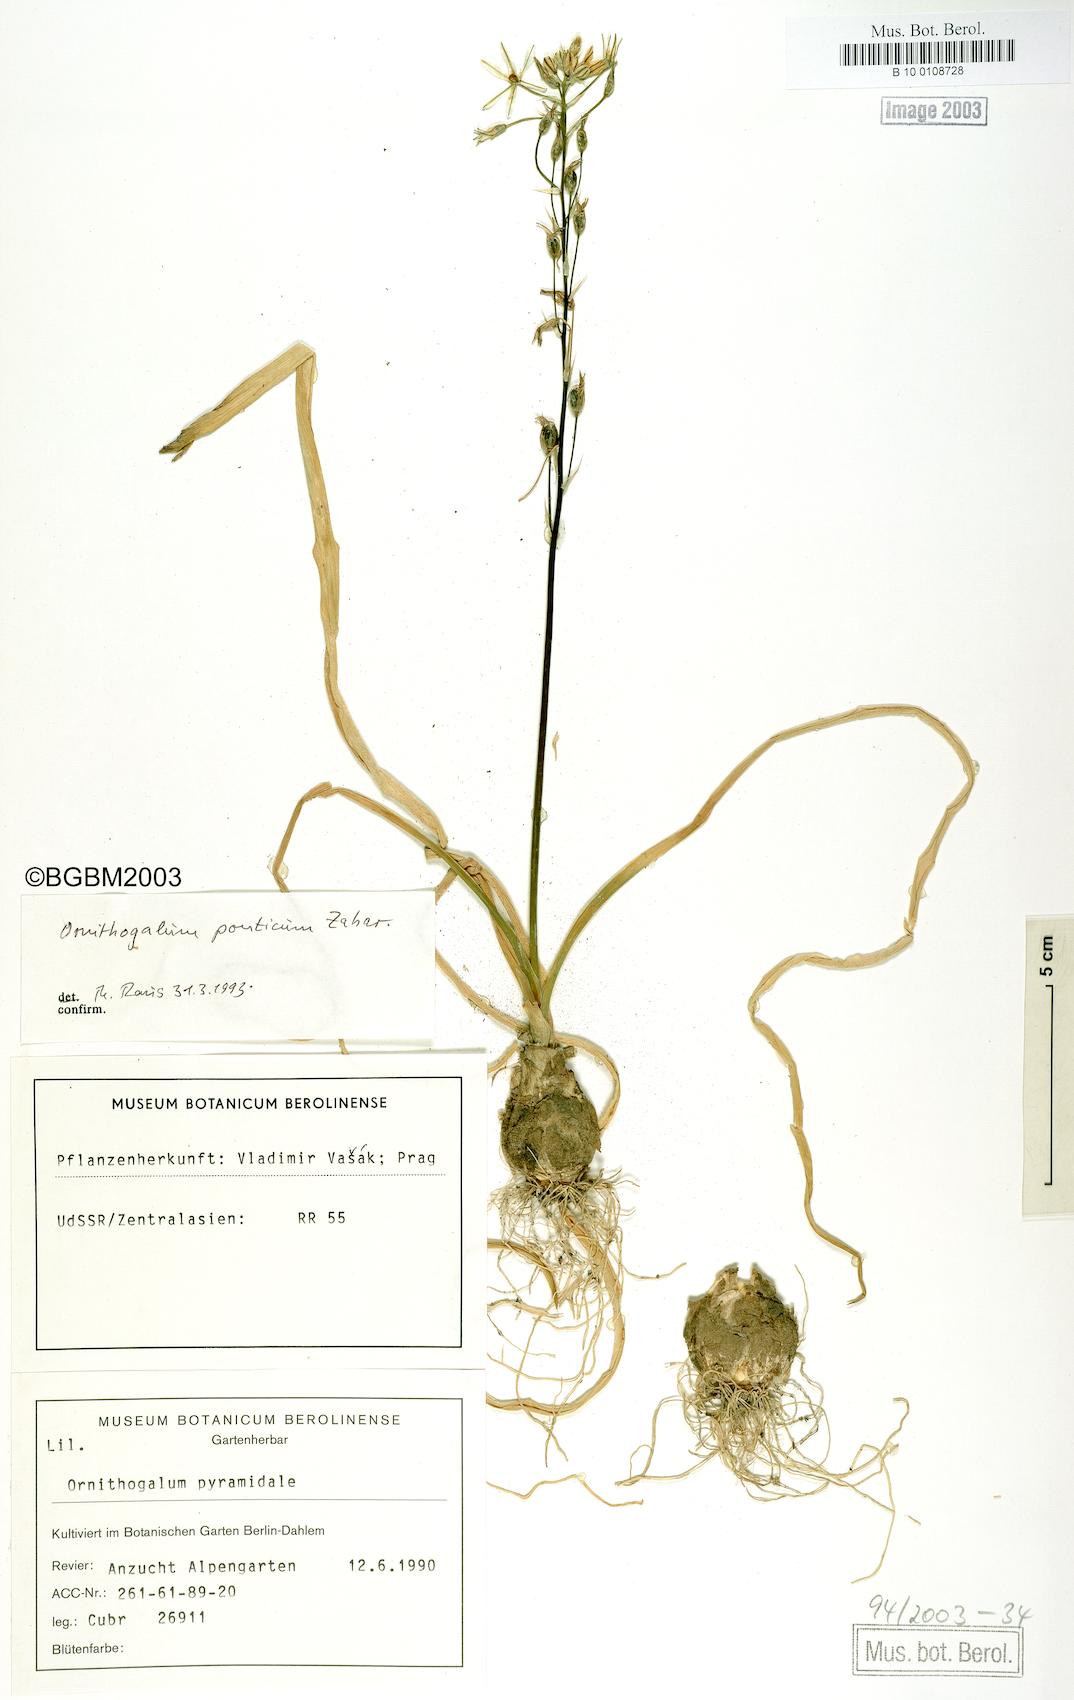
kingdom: Plantae
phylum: Tracheophyta
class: Liliopsida
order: Asparagales
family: Asparagaceae
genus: Ornithogalum
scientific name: Ornithogalum ponticum
